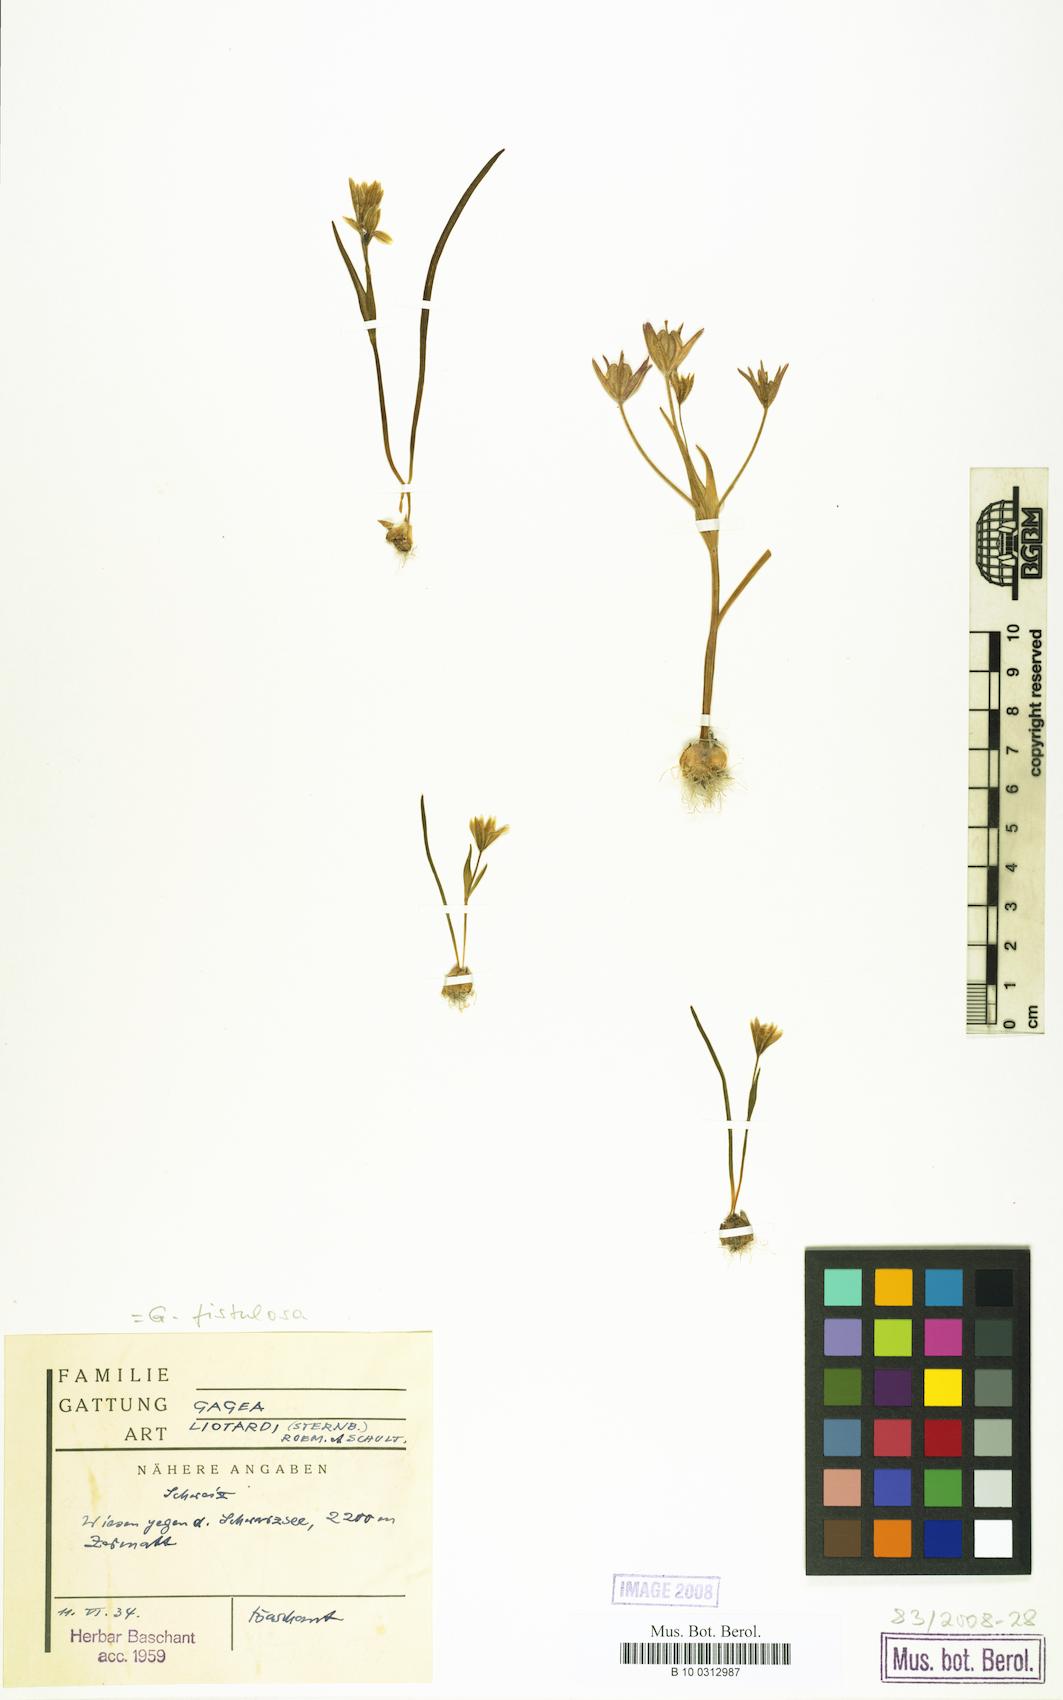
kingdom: Plantae
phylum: Tracheophyta
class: Liliopsida
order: Liliales
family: Liliaceae
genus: Gagea
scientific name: Gagea
